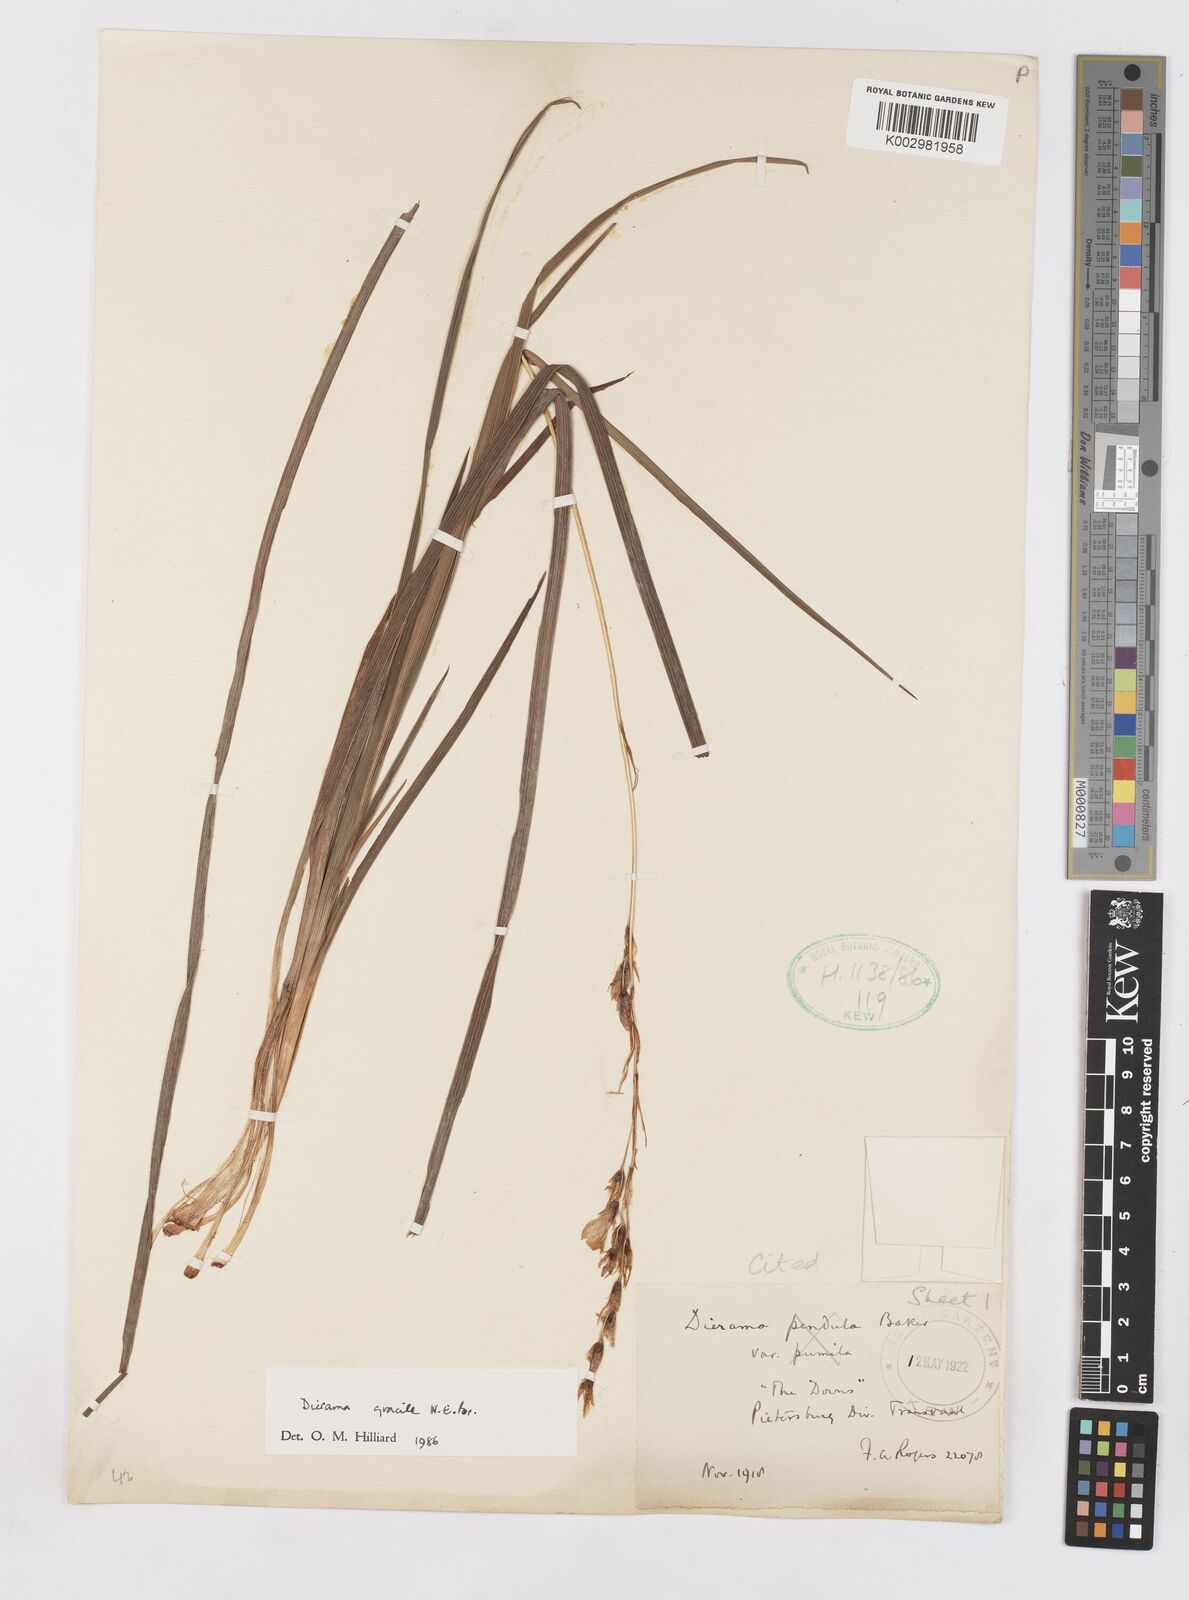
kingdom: Plantae
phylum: Tracheophyta
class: Liliopsida
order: Asparagales
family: Iridaceae
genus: Dierama
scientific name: Dierama gracile
